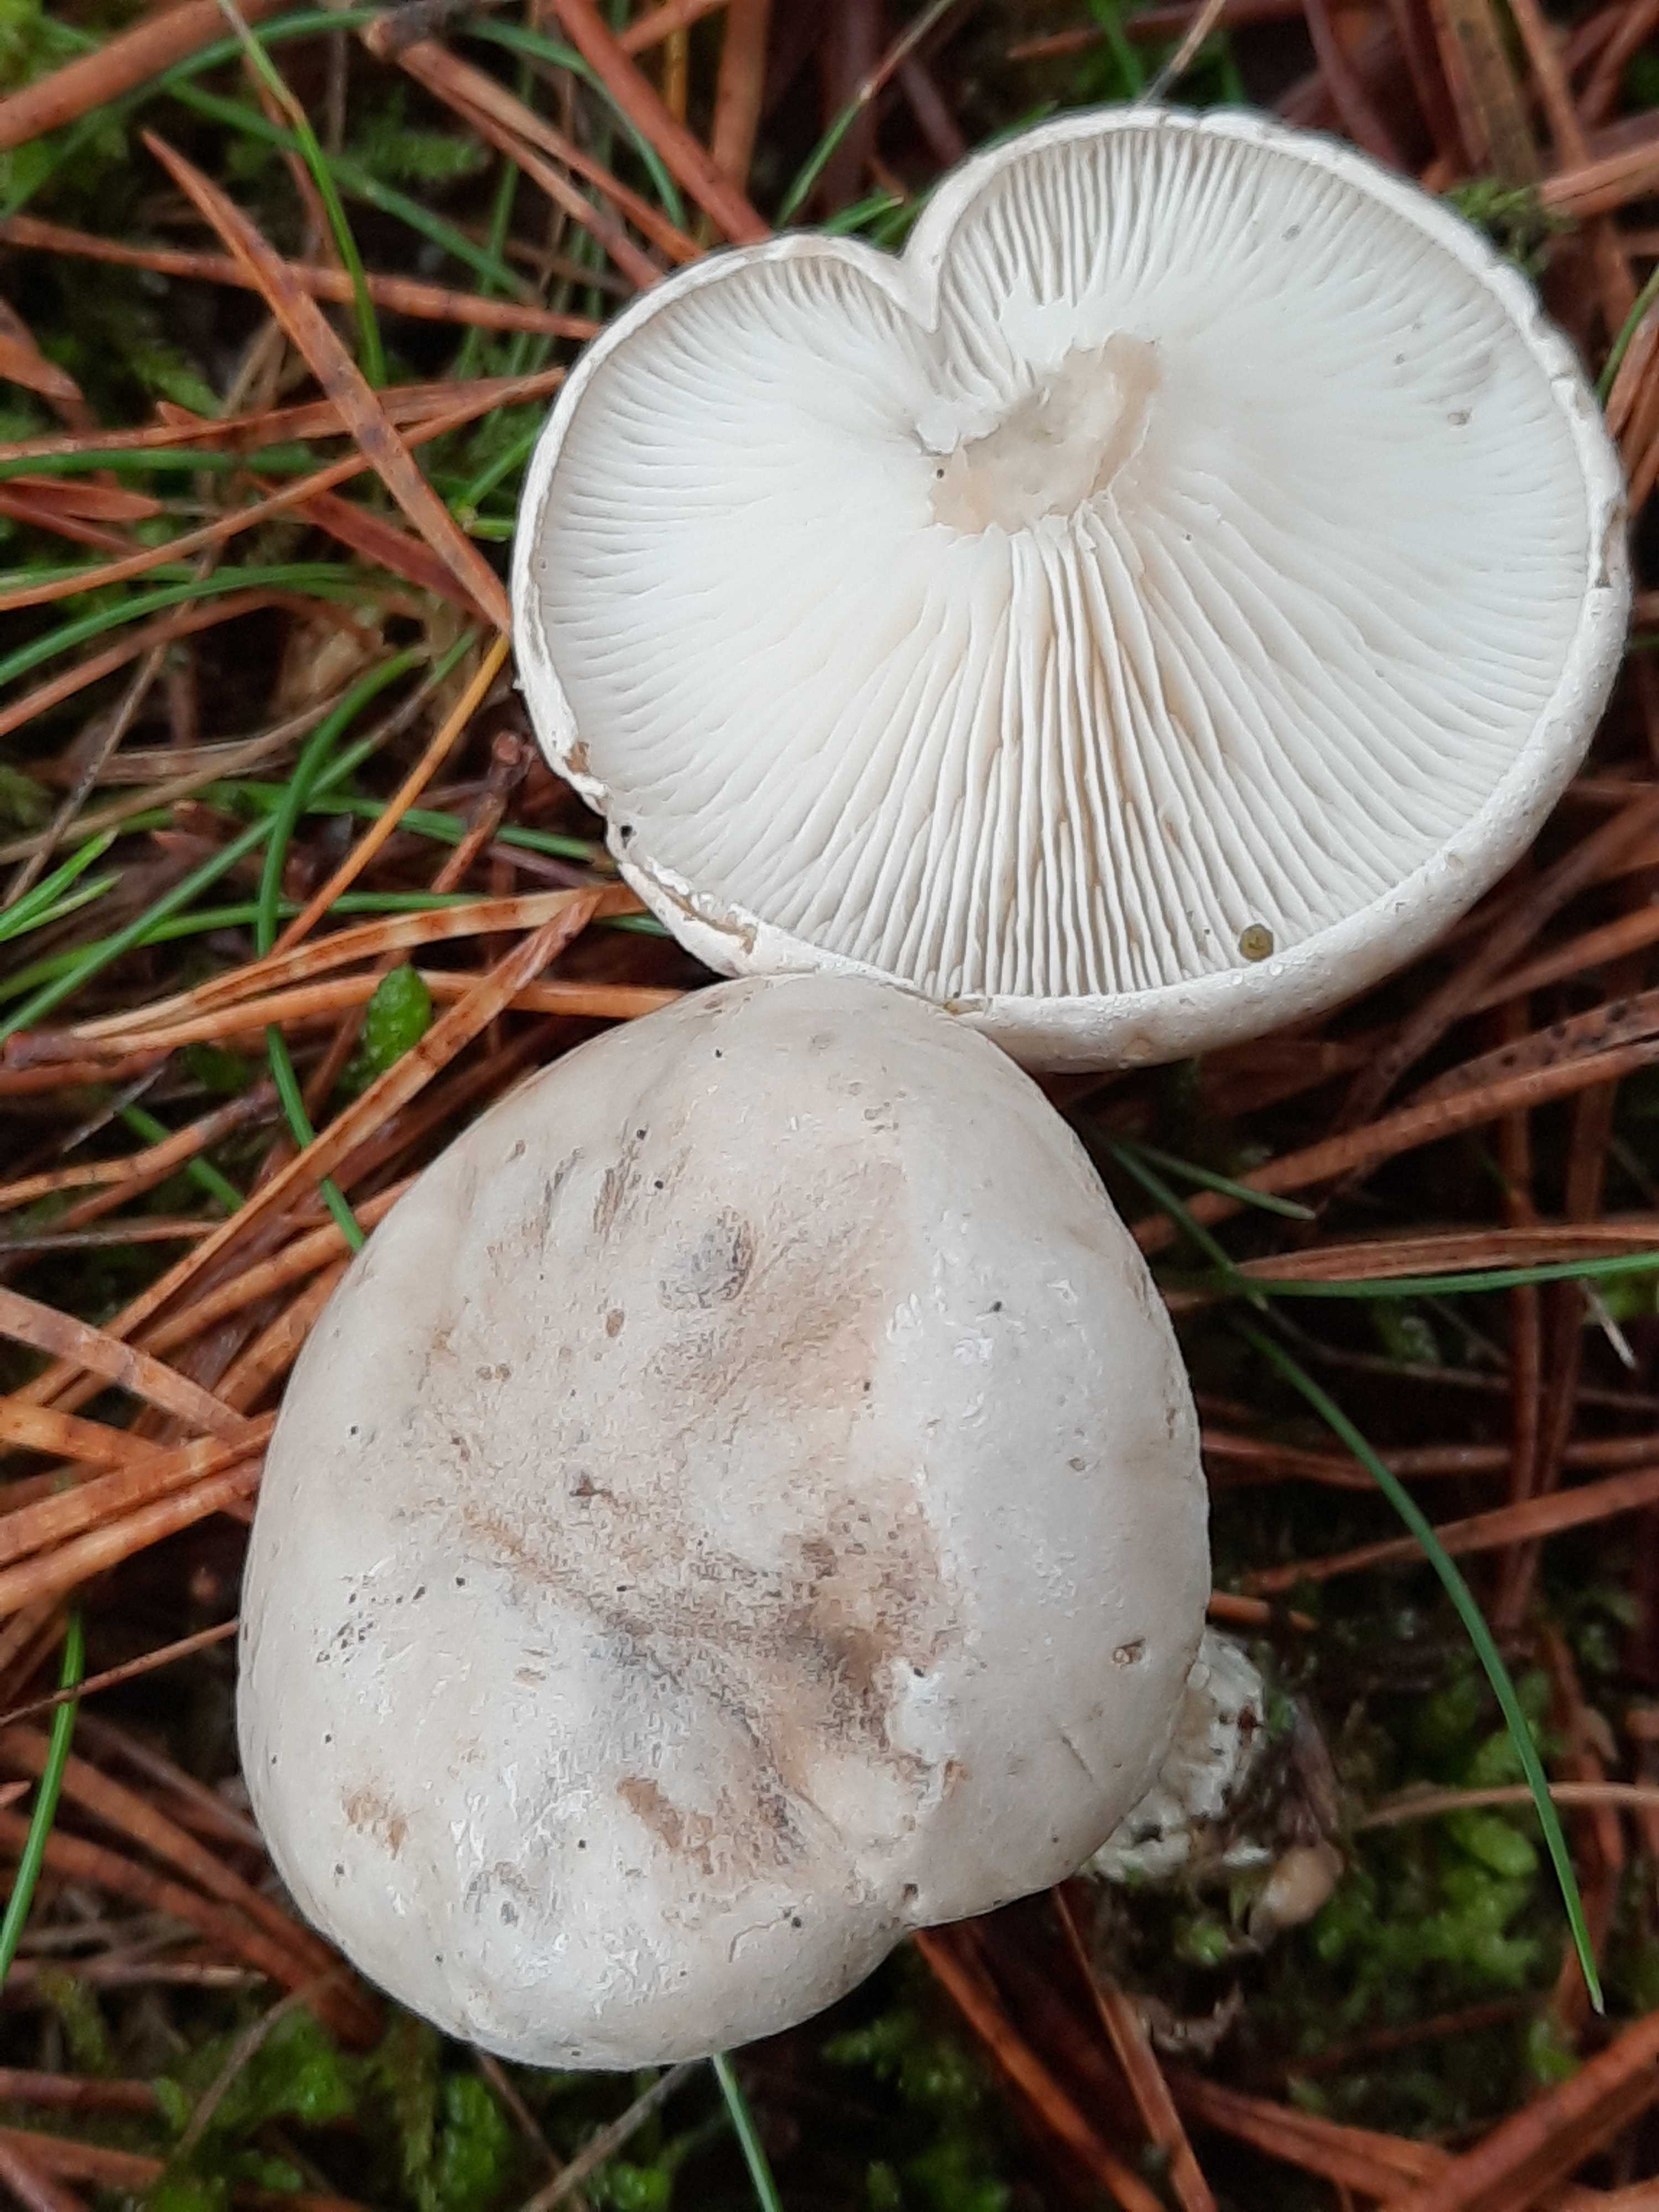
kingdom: Fungi
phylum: Basidiomycota
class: Agaricomycetes
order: Agaricales
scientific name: Agaricales
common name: champignonordenen
